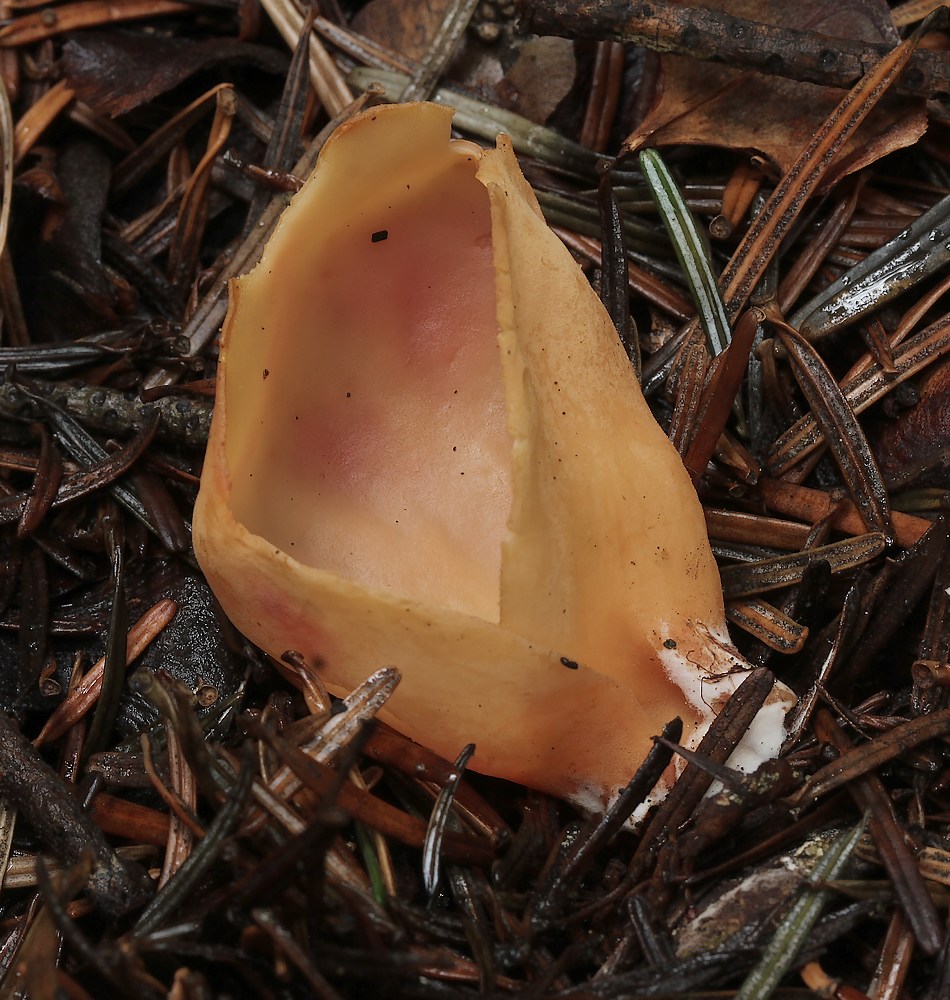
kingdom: Fungi
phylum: Ascomycota
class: Pezizomycetes
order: Pezizales
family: Otideaceae
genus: Otidea
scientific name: Otidea onotica
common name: æsel-ørebæger
